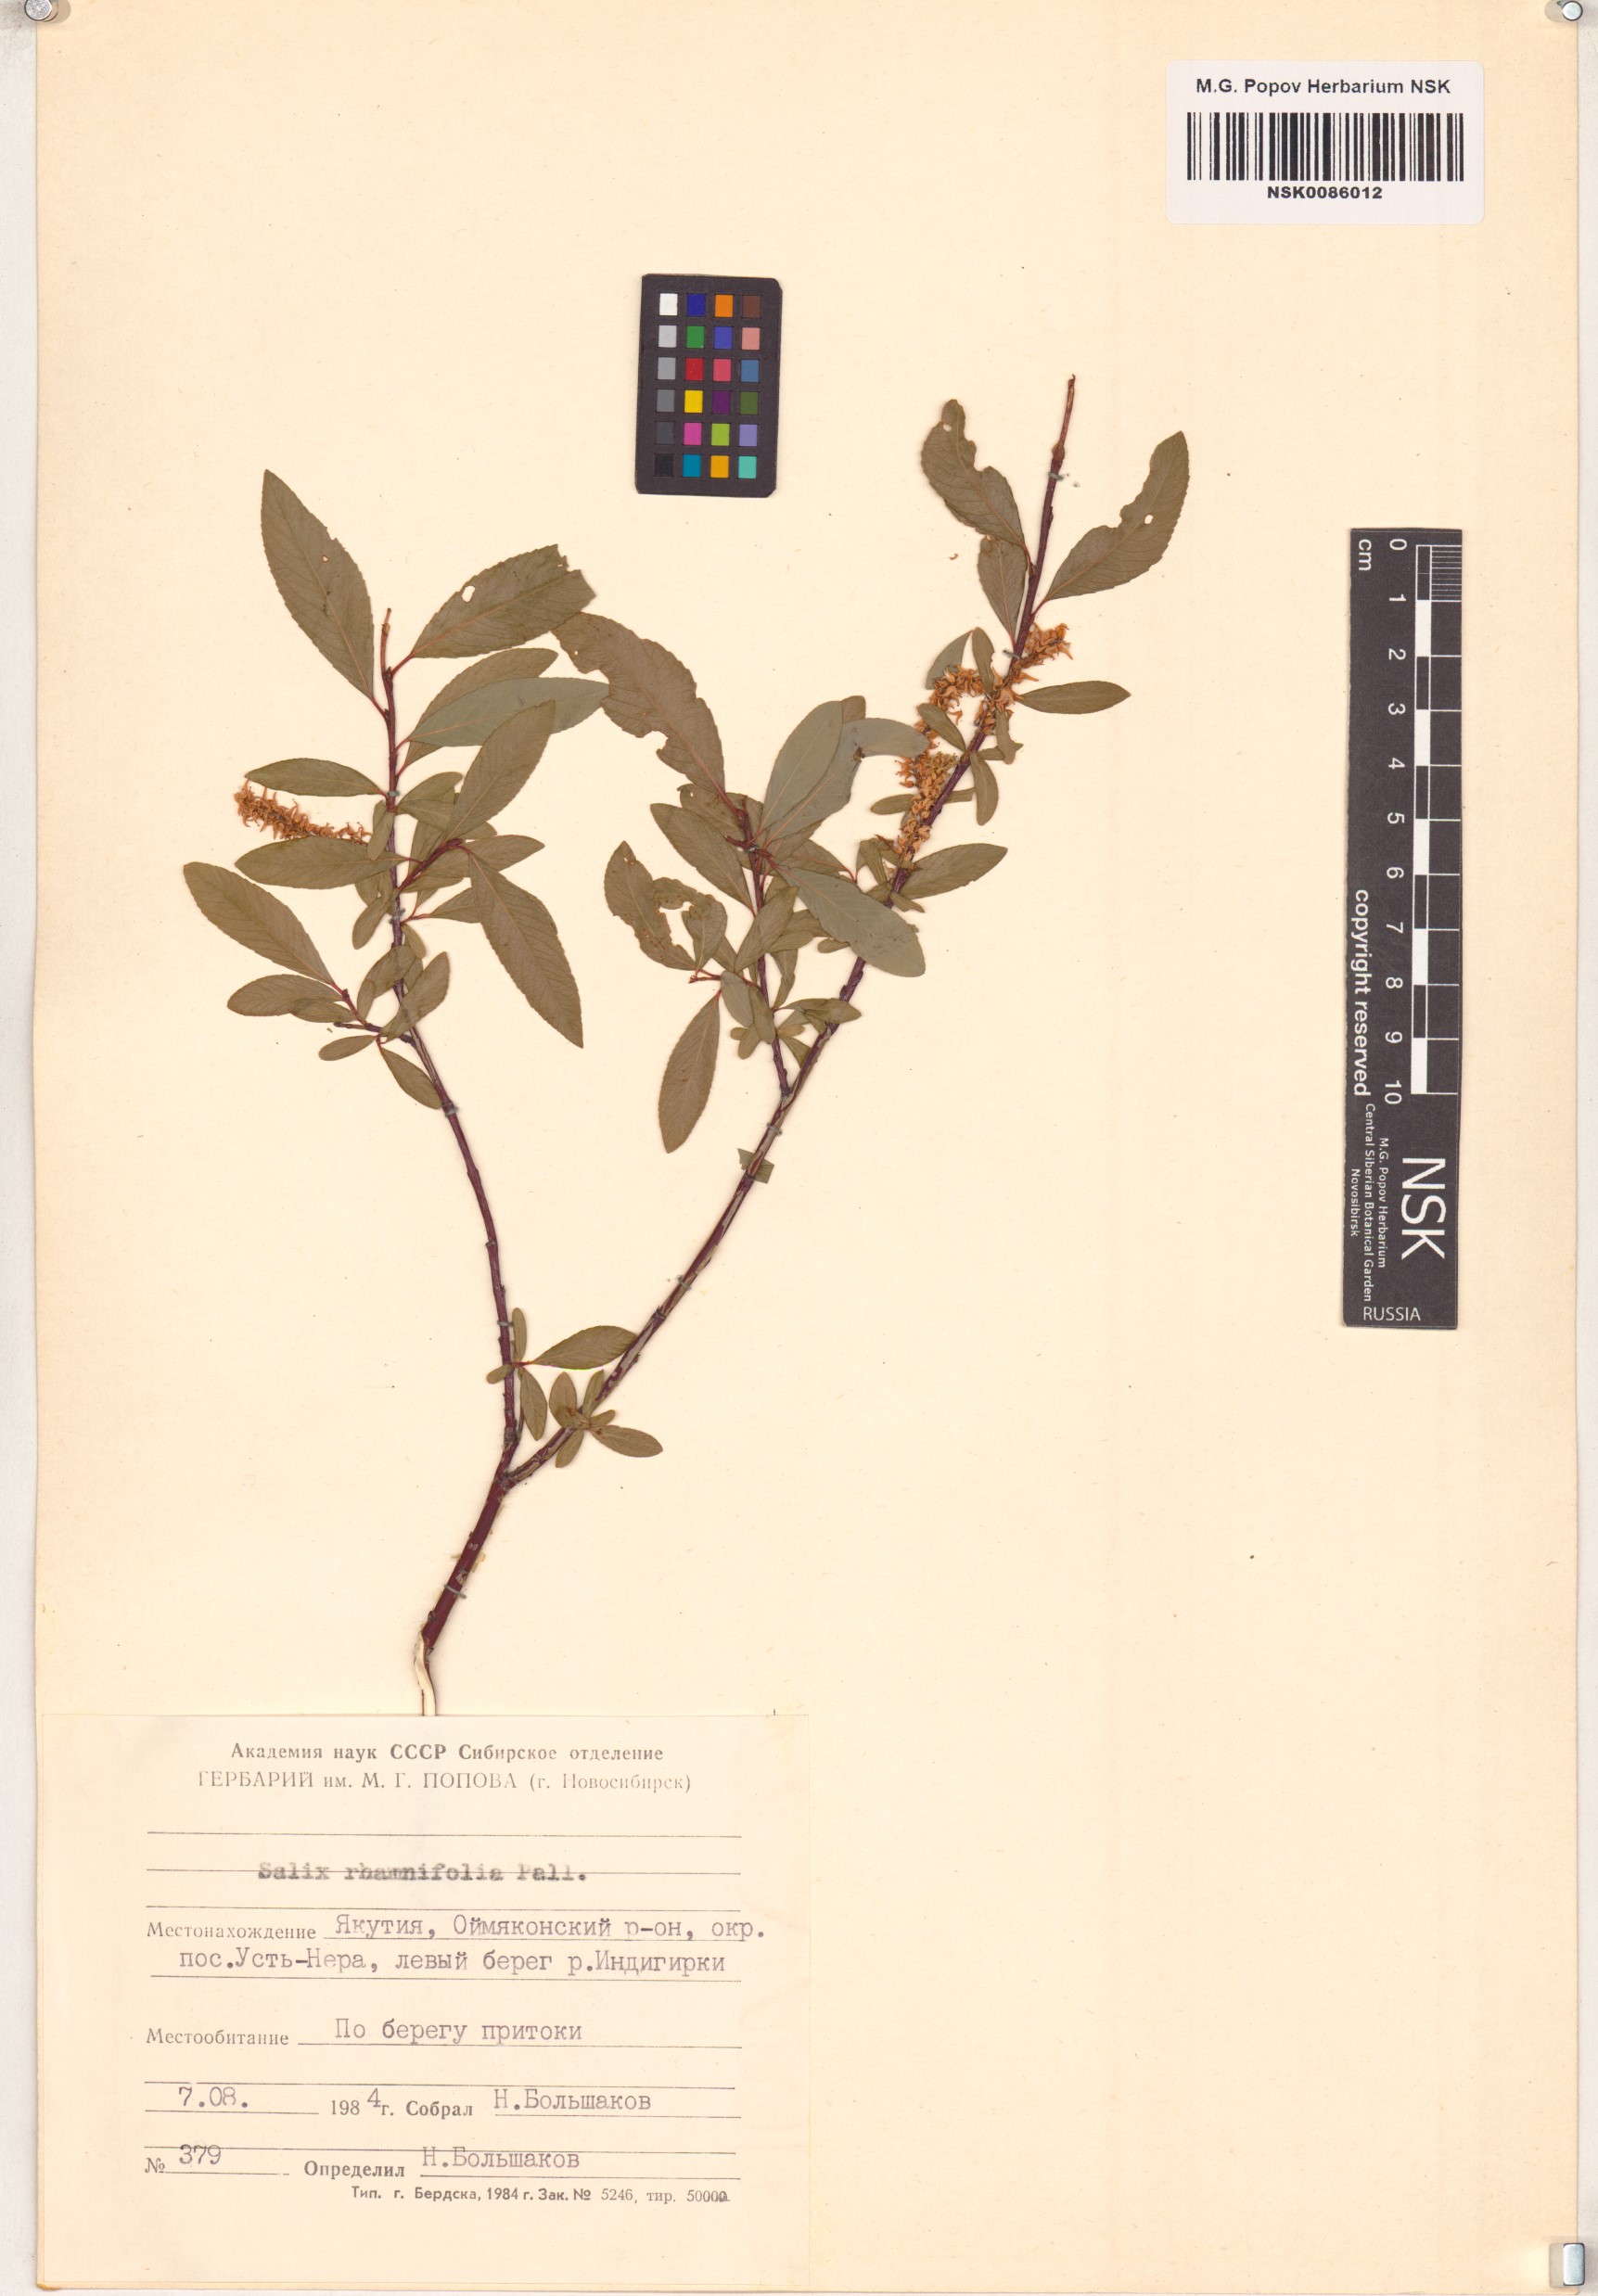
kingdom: Plantae
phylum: Tracheophyta
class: Magnoliopsida
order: Malpighiales
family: Salicaceae
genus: Salix
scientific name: Salix rhamnifolia
